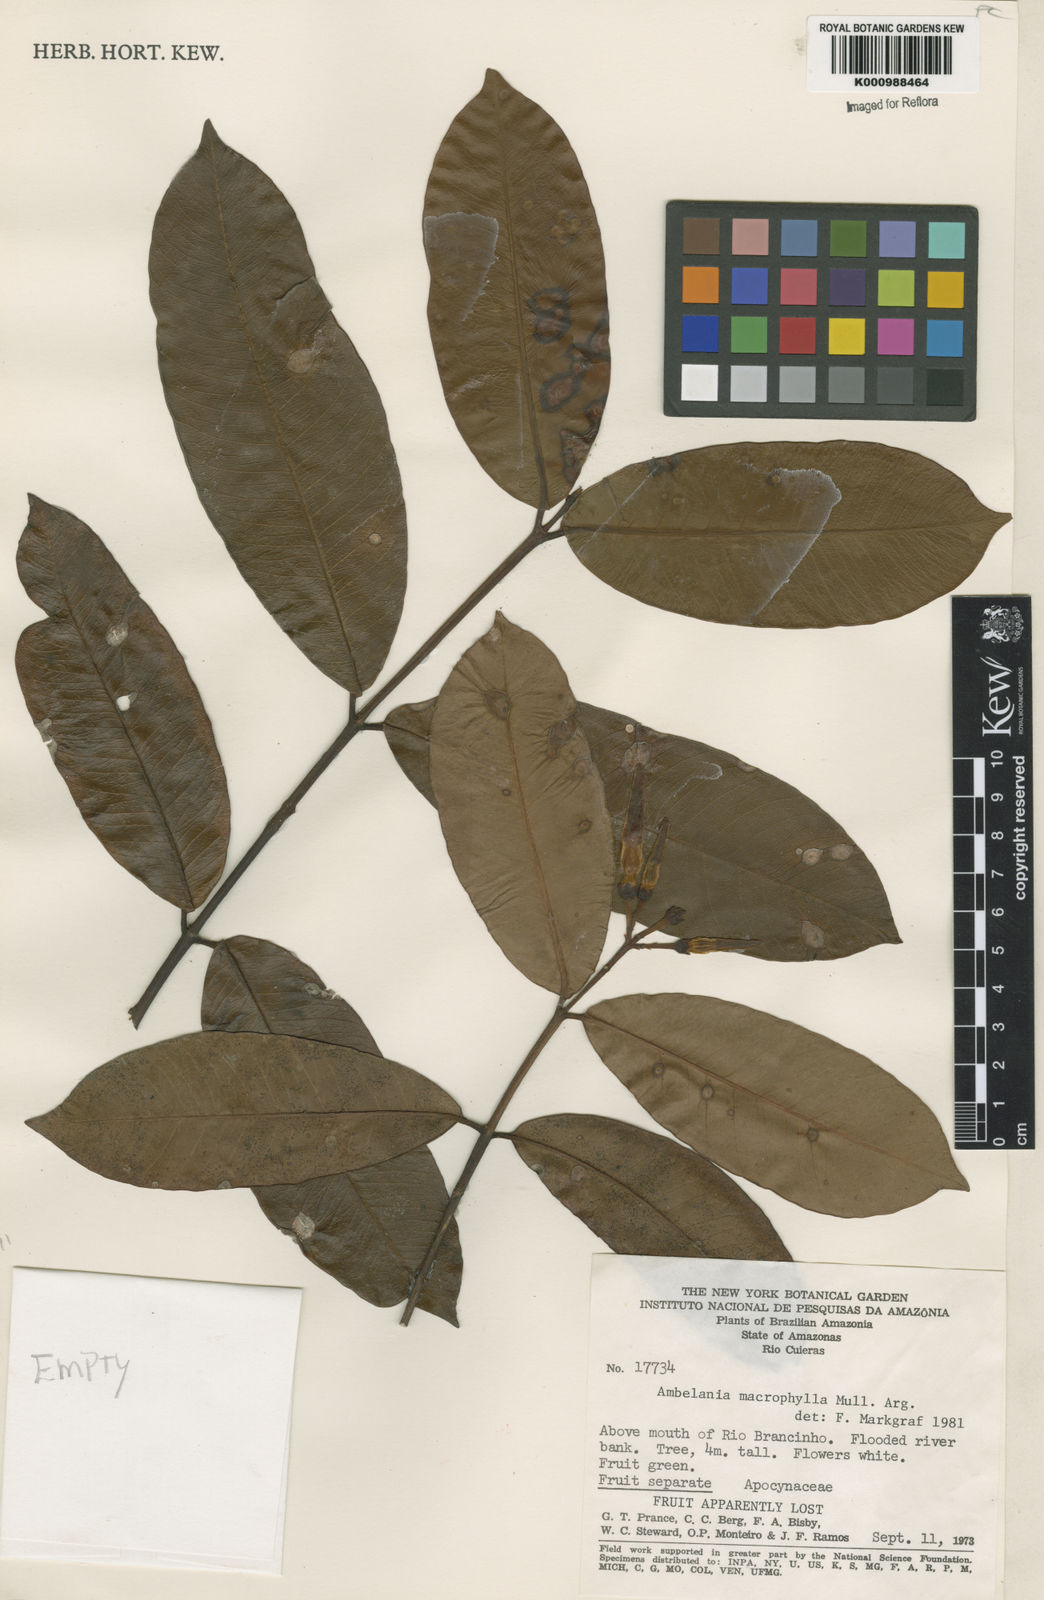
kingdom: Plantae
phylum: Tracheophyta
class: Magnoliopsida
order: Gentianales
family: Apocynaceae
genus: Aspidosperma
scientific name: Aspidosperma
